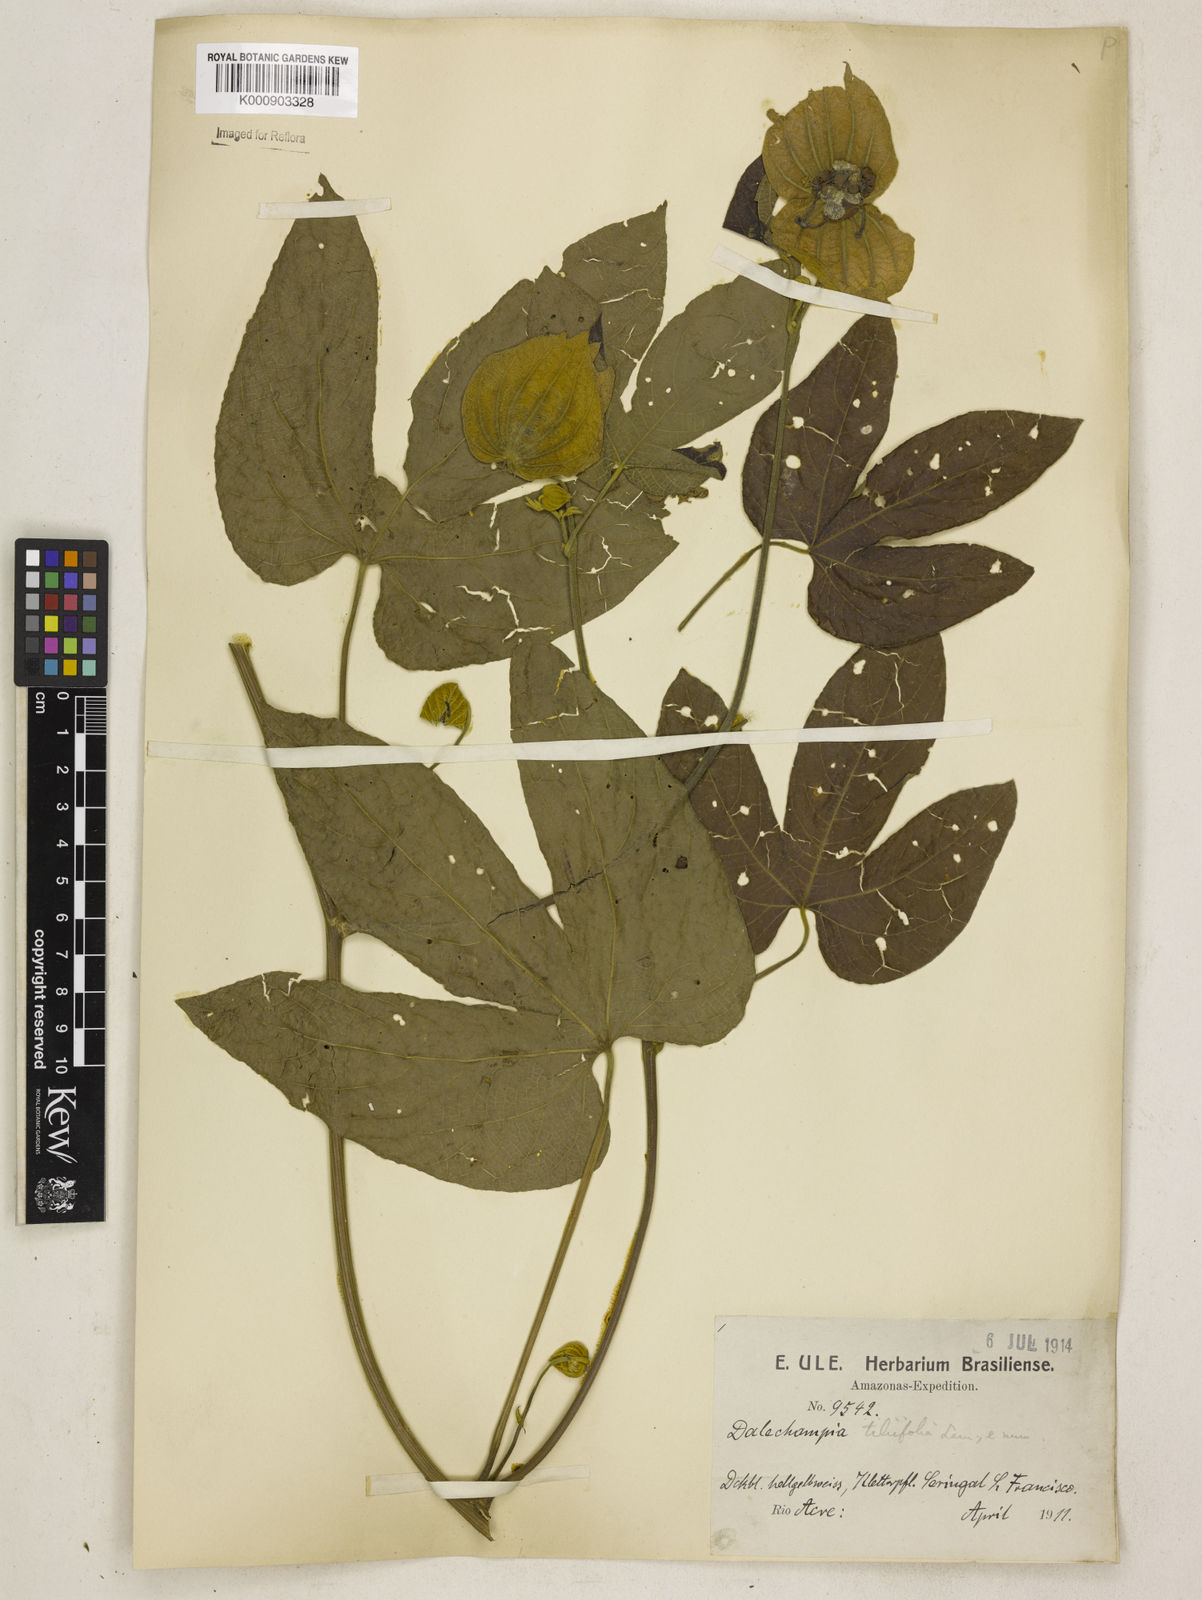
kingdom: Plantae
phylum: Tracheophyta
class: Magnoliopsida
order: Malpighiales
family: Euphorbiaceae
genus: Dalechampia
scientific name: Dalechampia tiliifolia
